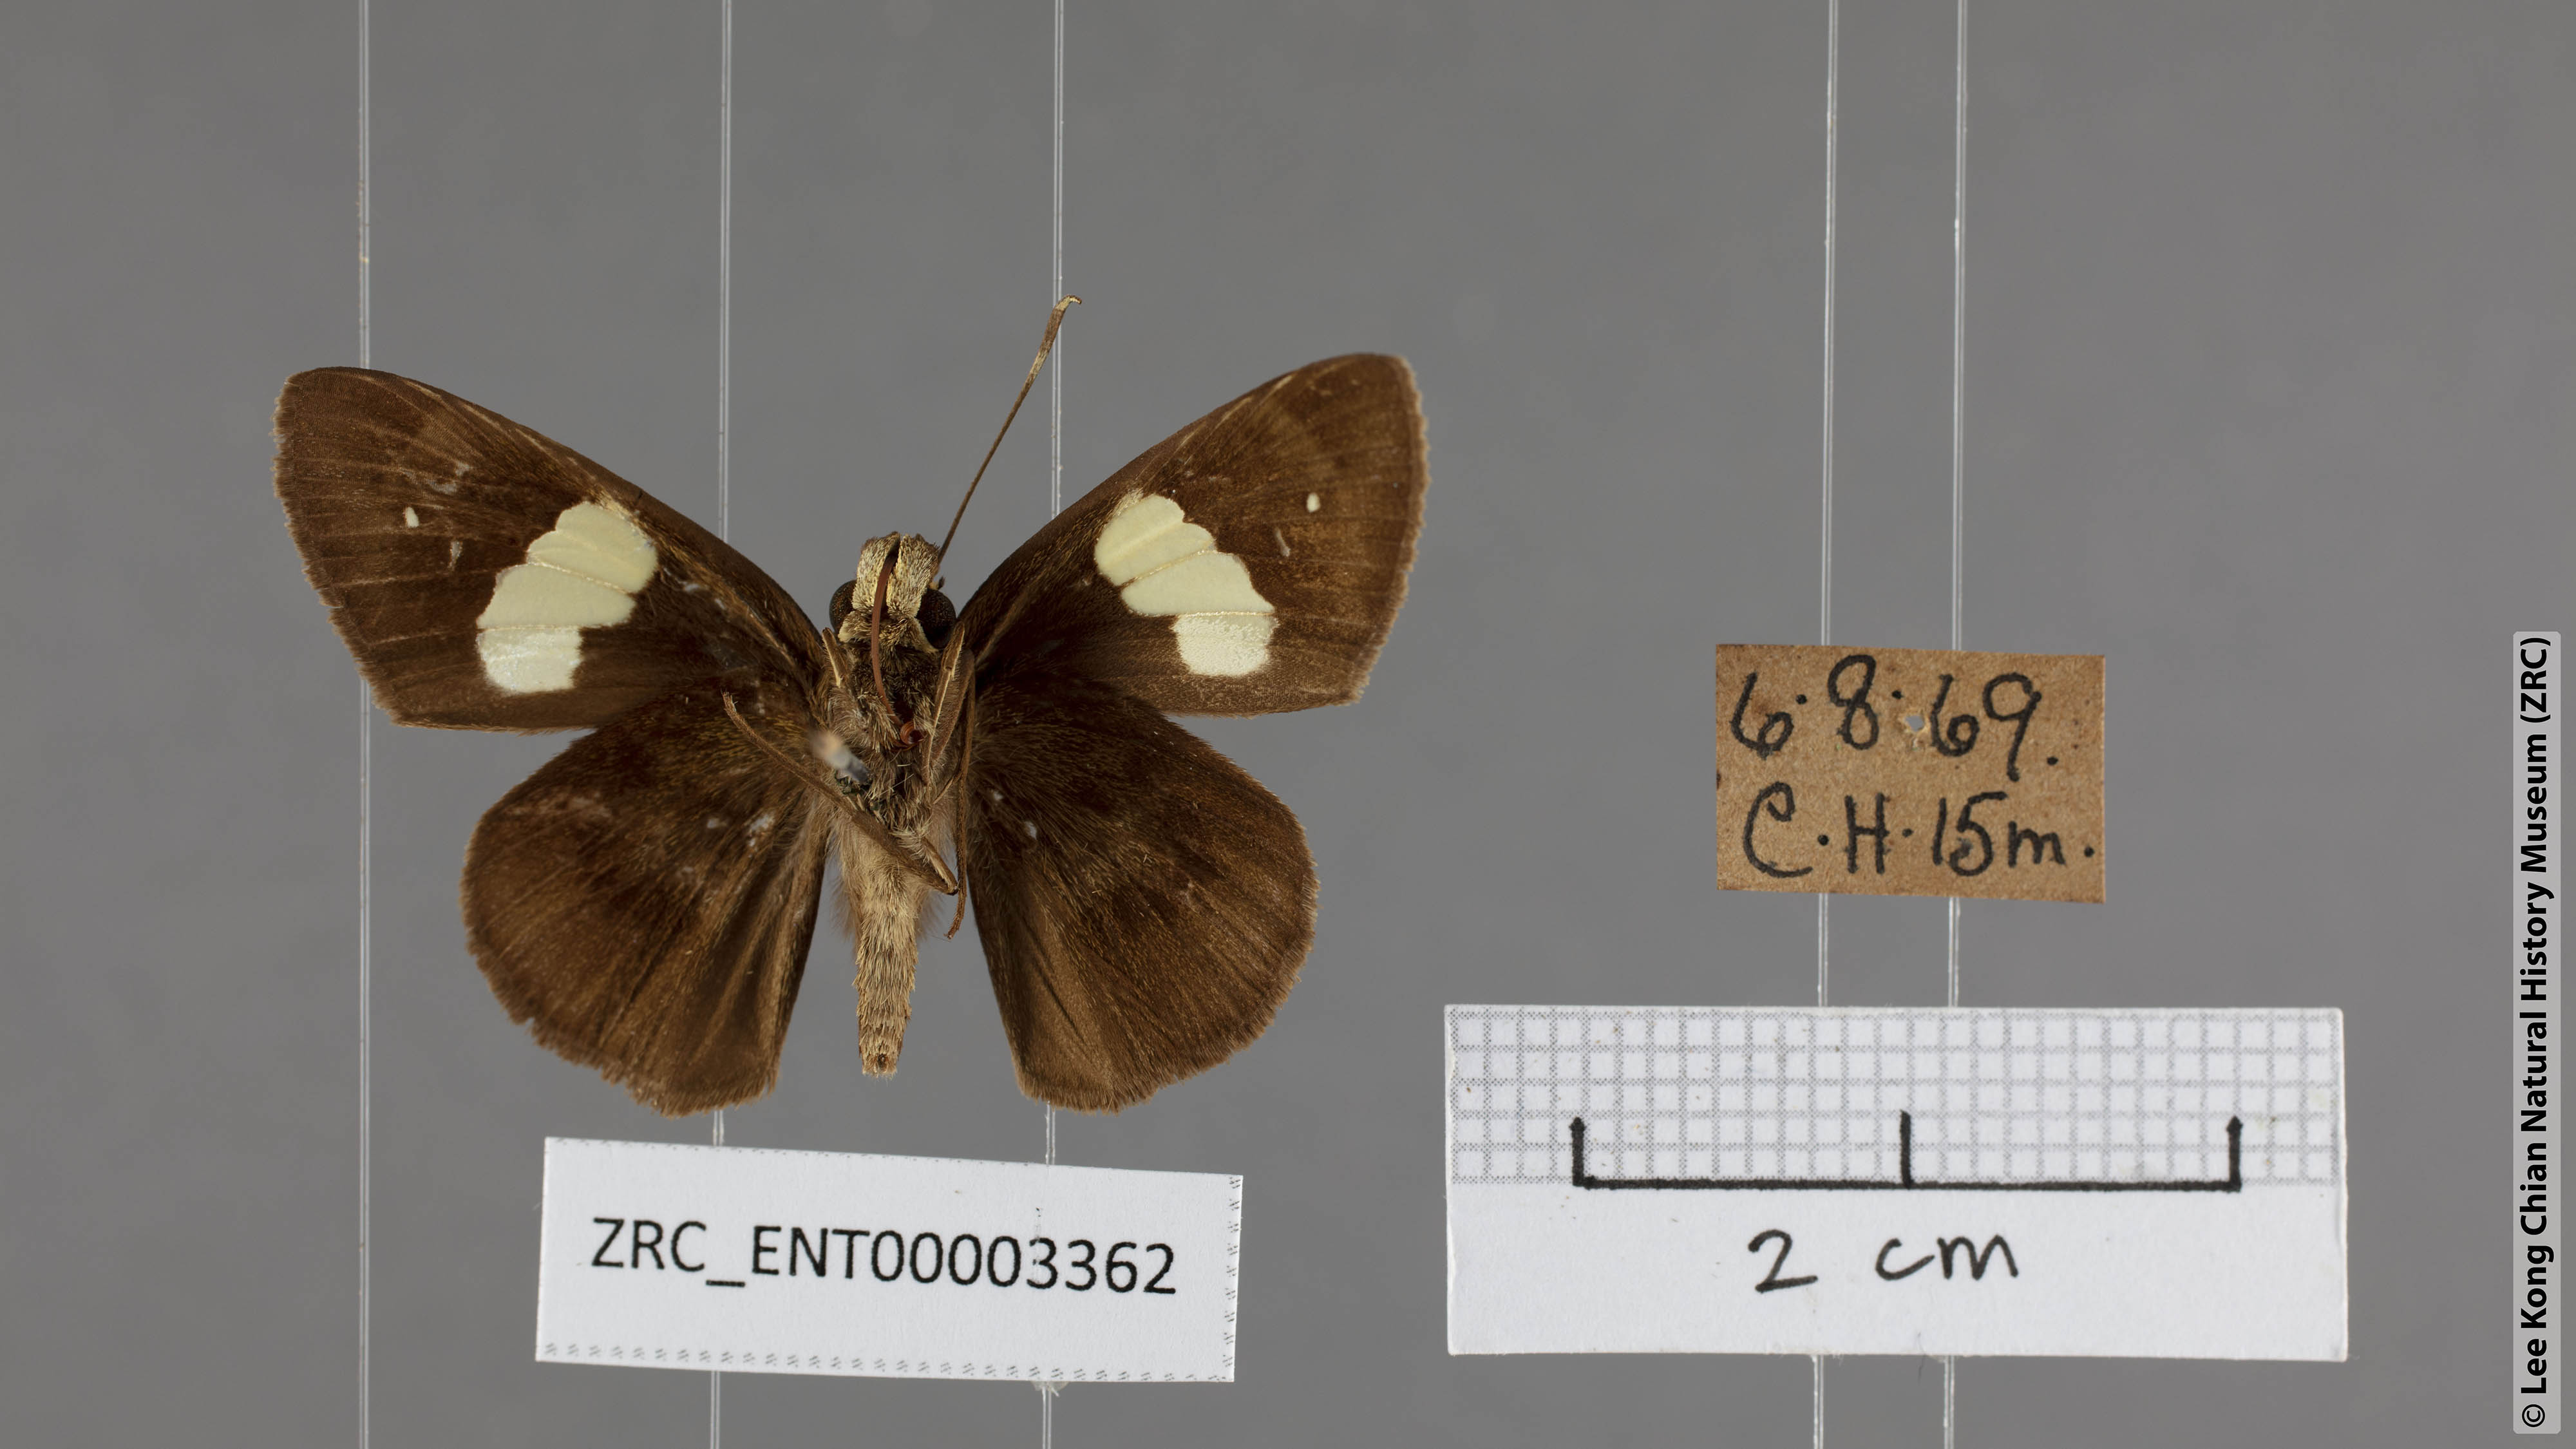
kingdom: Animalia
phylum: Arthropoda
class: Insecta
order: Lepidoptera
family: Hesperiidae
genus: Notocrypta
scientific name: Notocrypta paralysos
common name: Common banded demon
